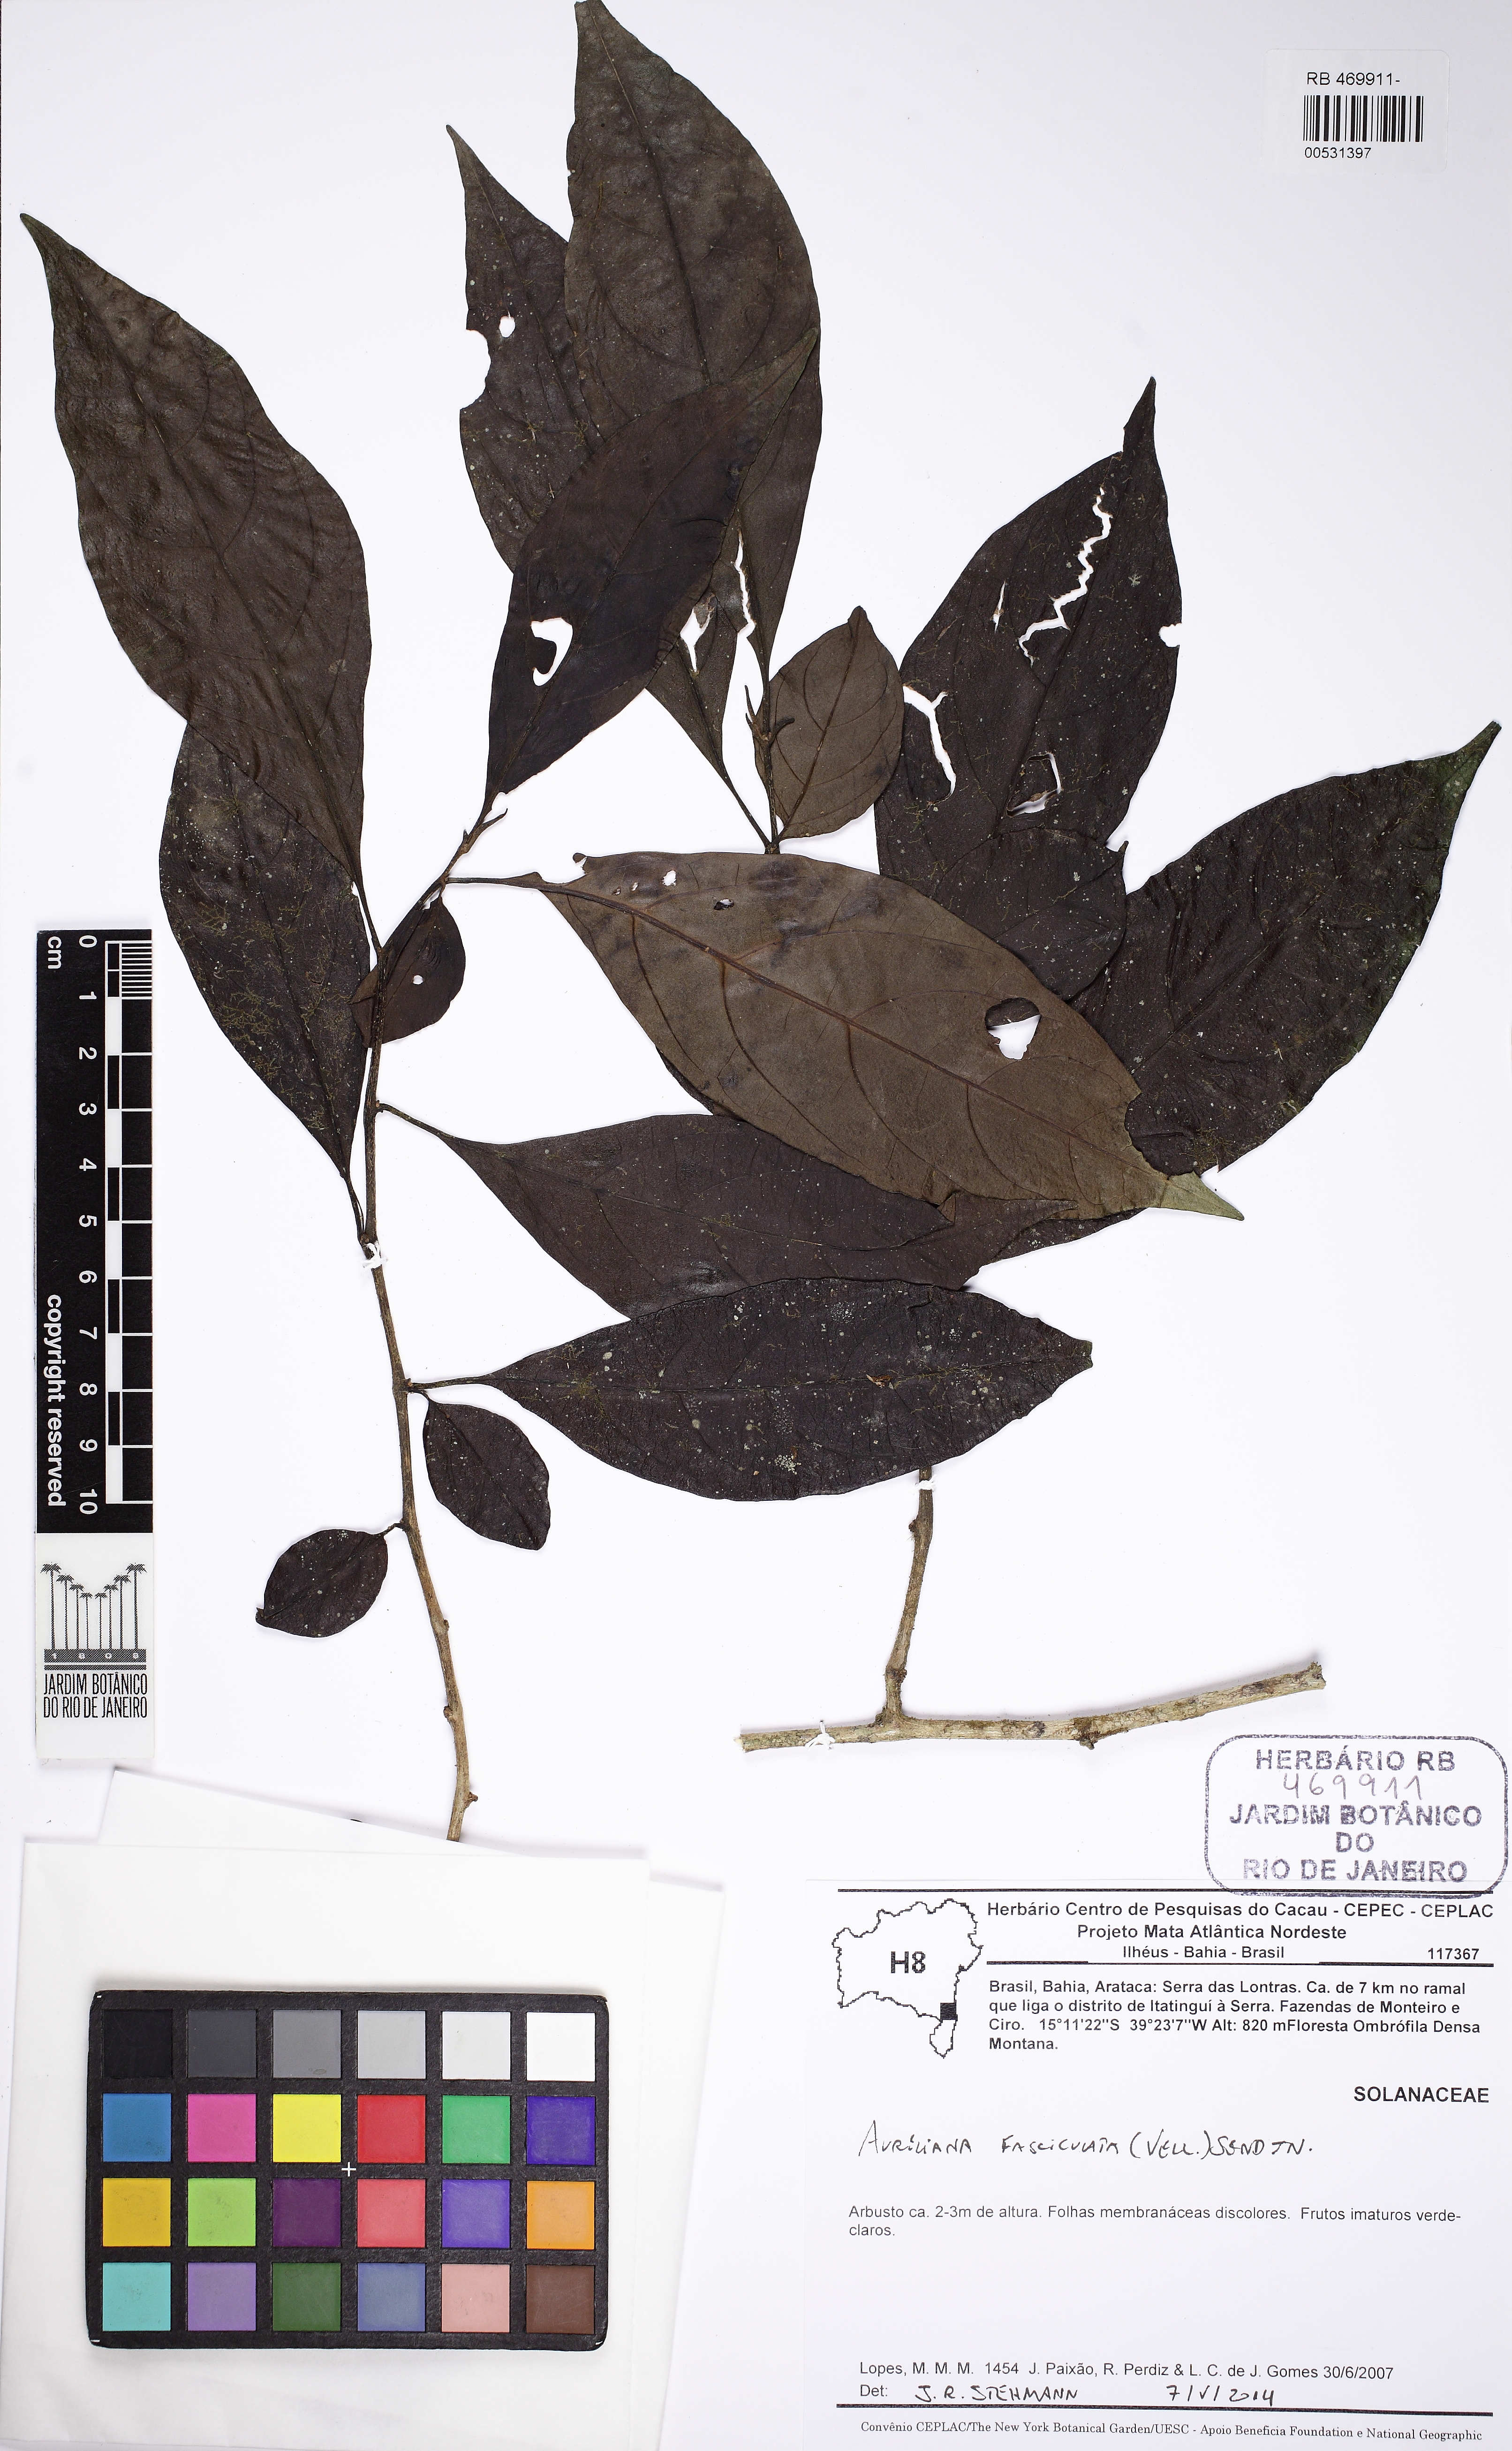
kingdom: Plantae
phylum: Tracheophyta
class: Magnoliopsida
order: Solanales
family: Solanaceae
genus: Athenaea
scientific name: Athenaea fasciculata
